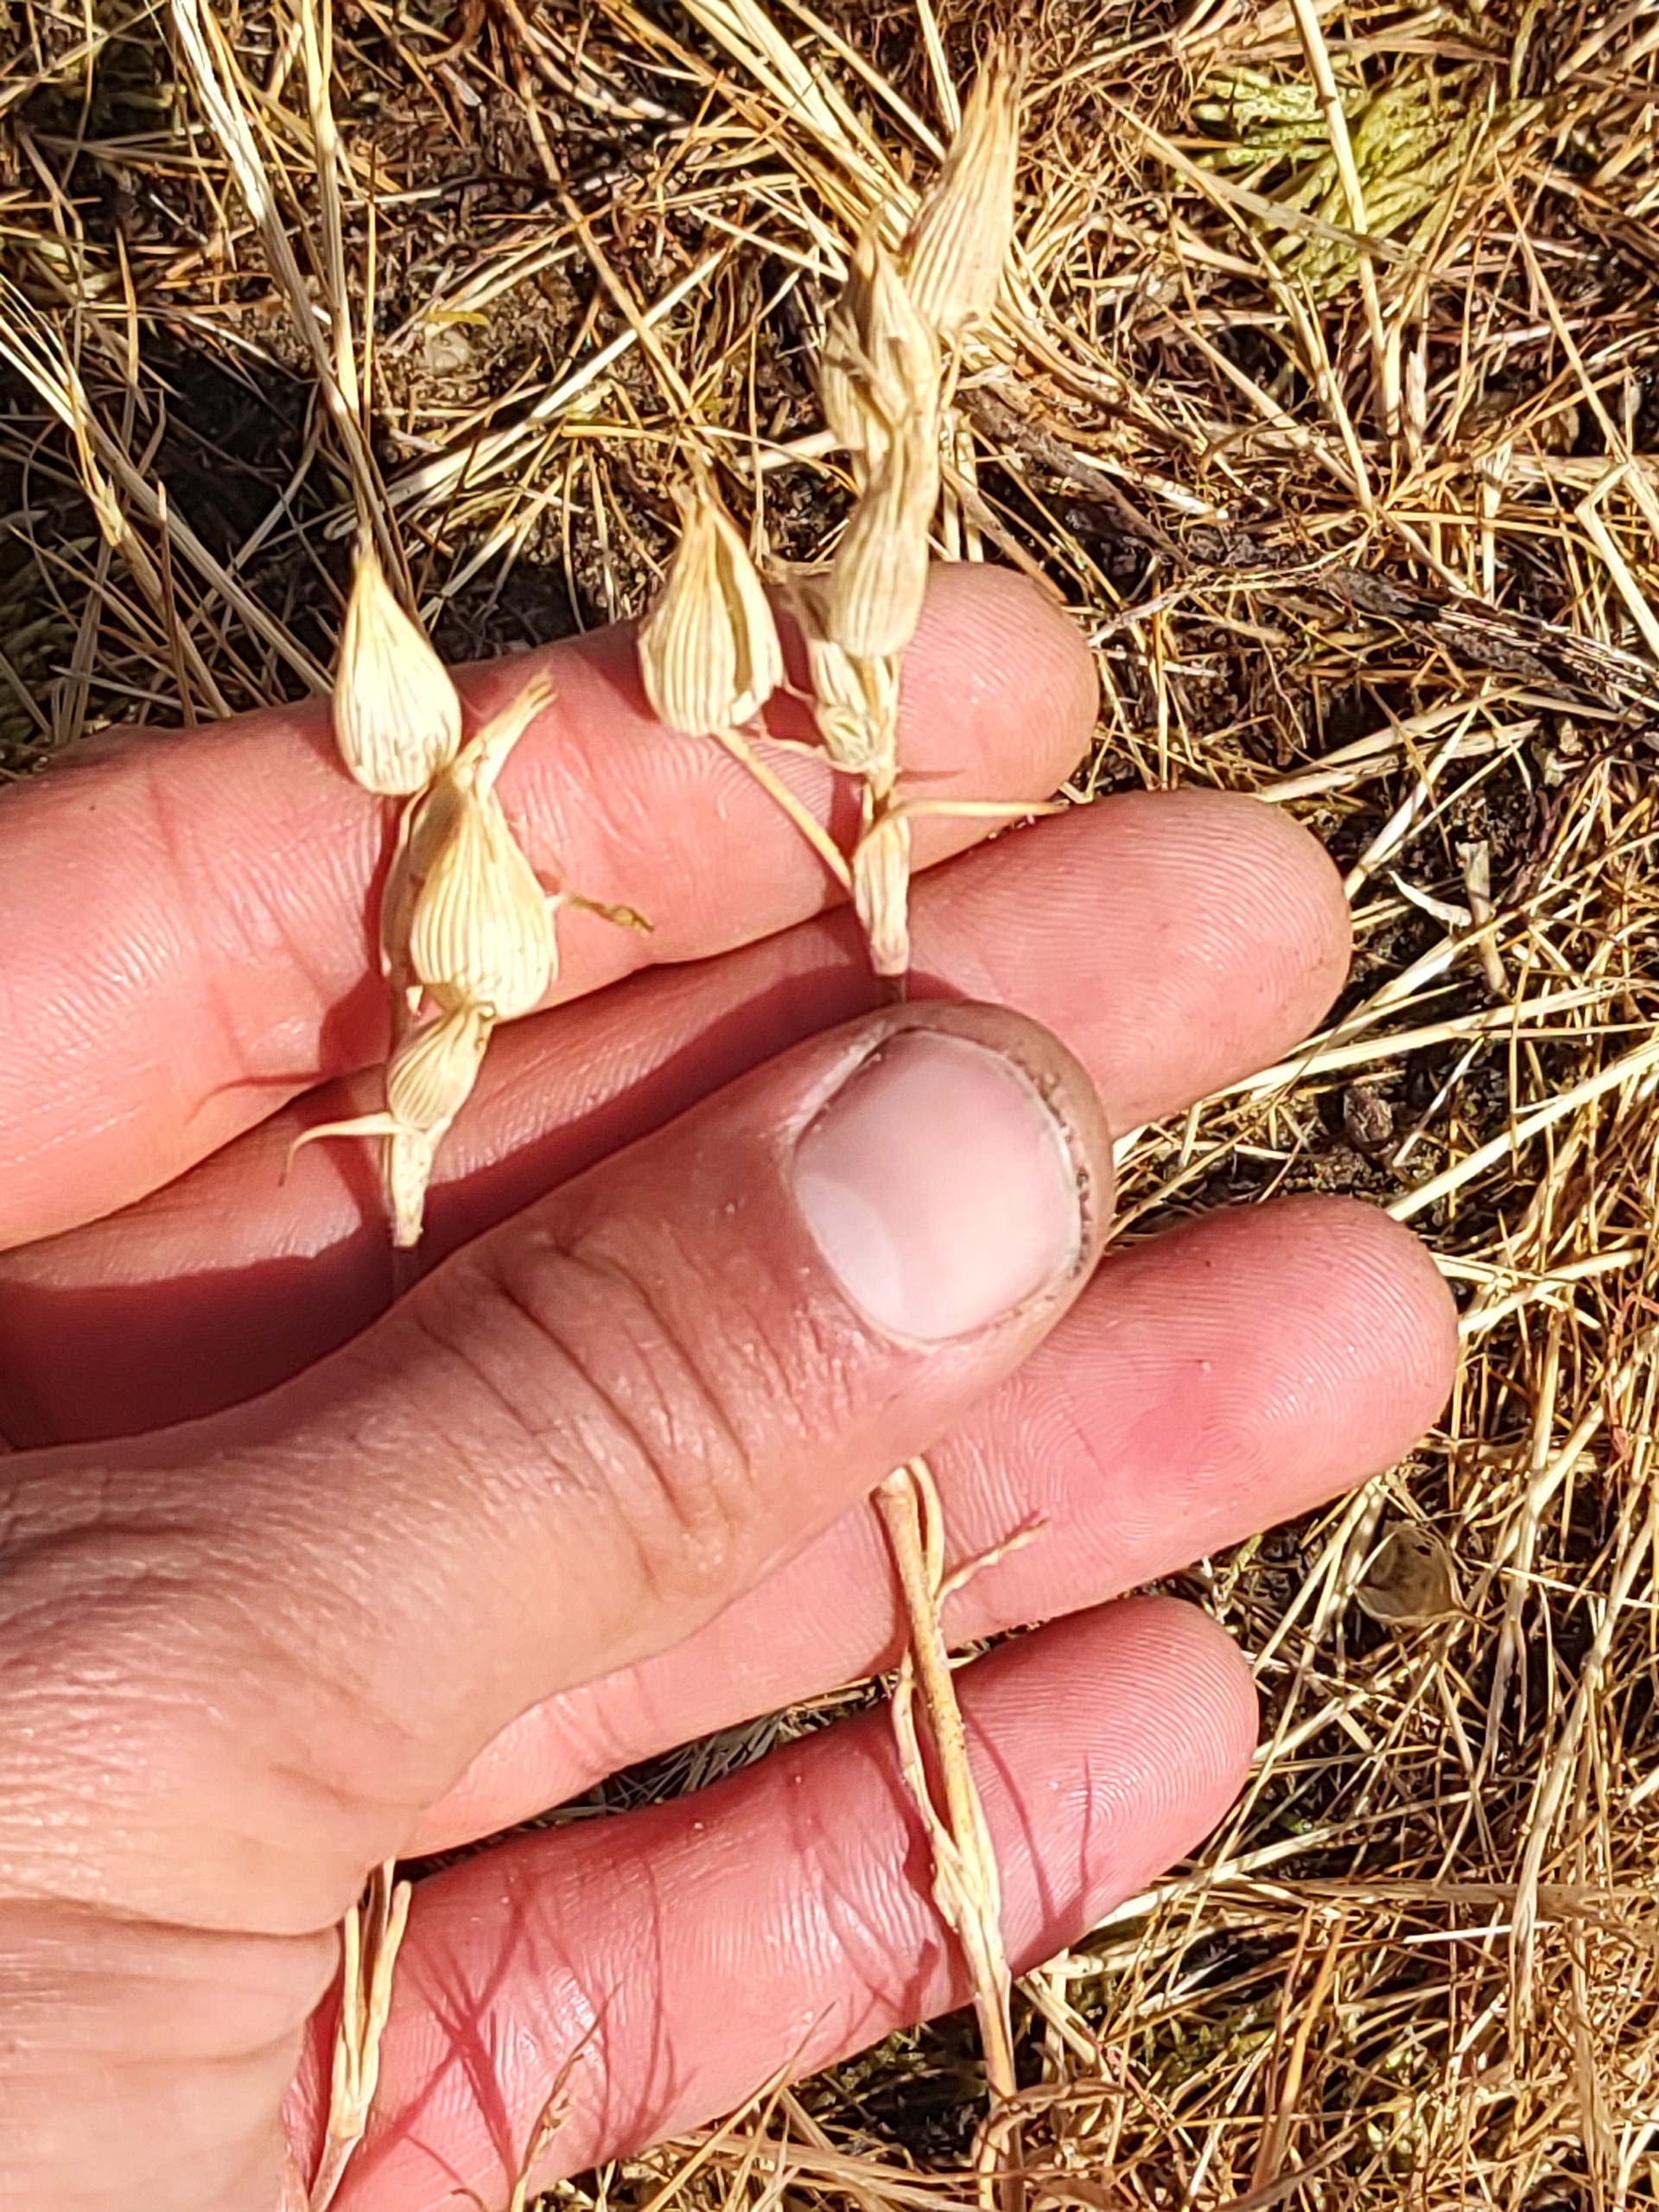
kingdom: Plantae
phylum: Tracheophyta
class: Magnoliopsida
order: Caryophyllales
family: Caryophyllaceae
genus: Silene
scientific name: Silene conica
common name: Kegle-limurt
